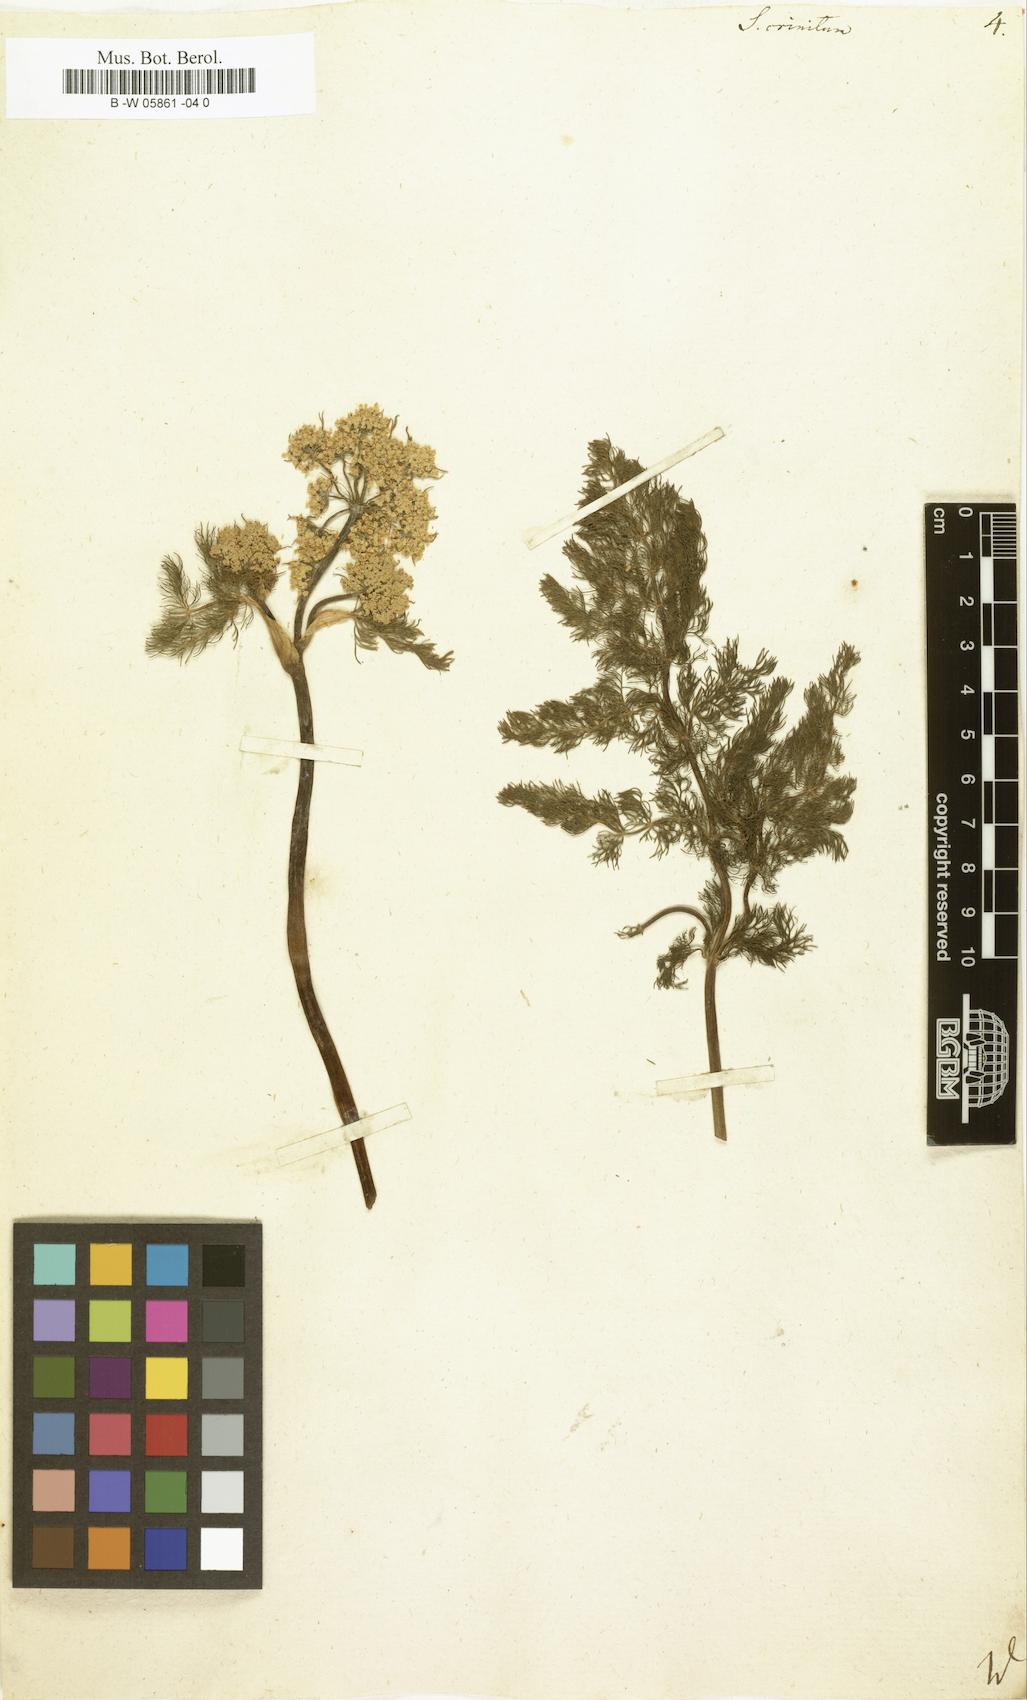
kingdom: Plantae
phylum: Tracheophyta
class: Magnoliopsida
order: Apiales
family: Apiaceae
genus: Schulzia
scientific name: Schulzia crinita
